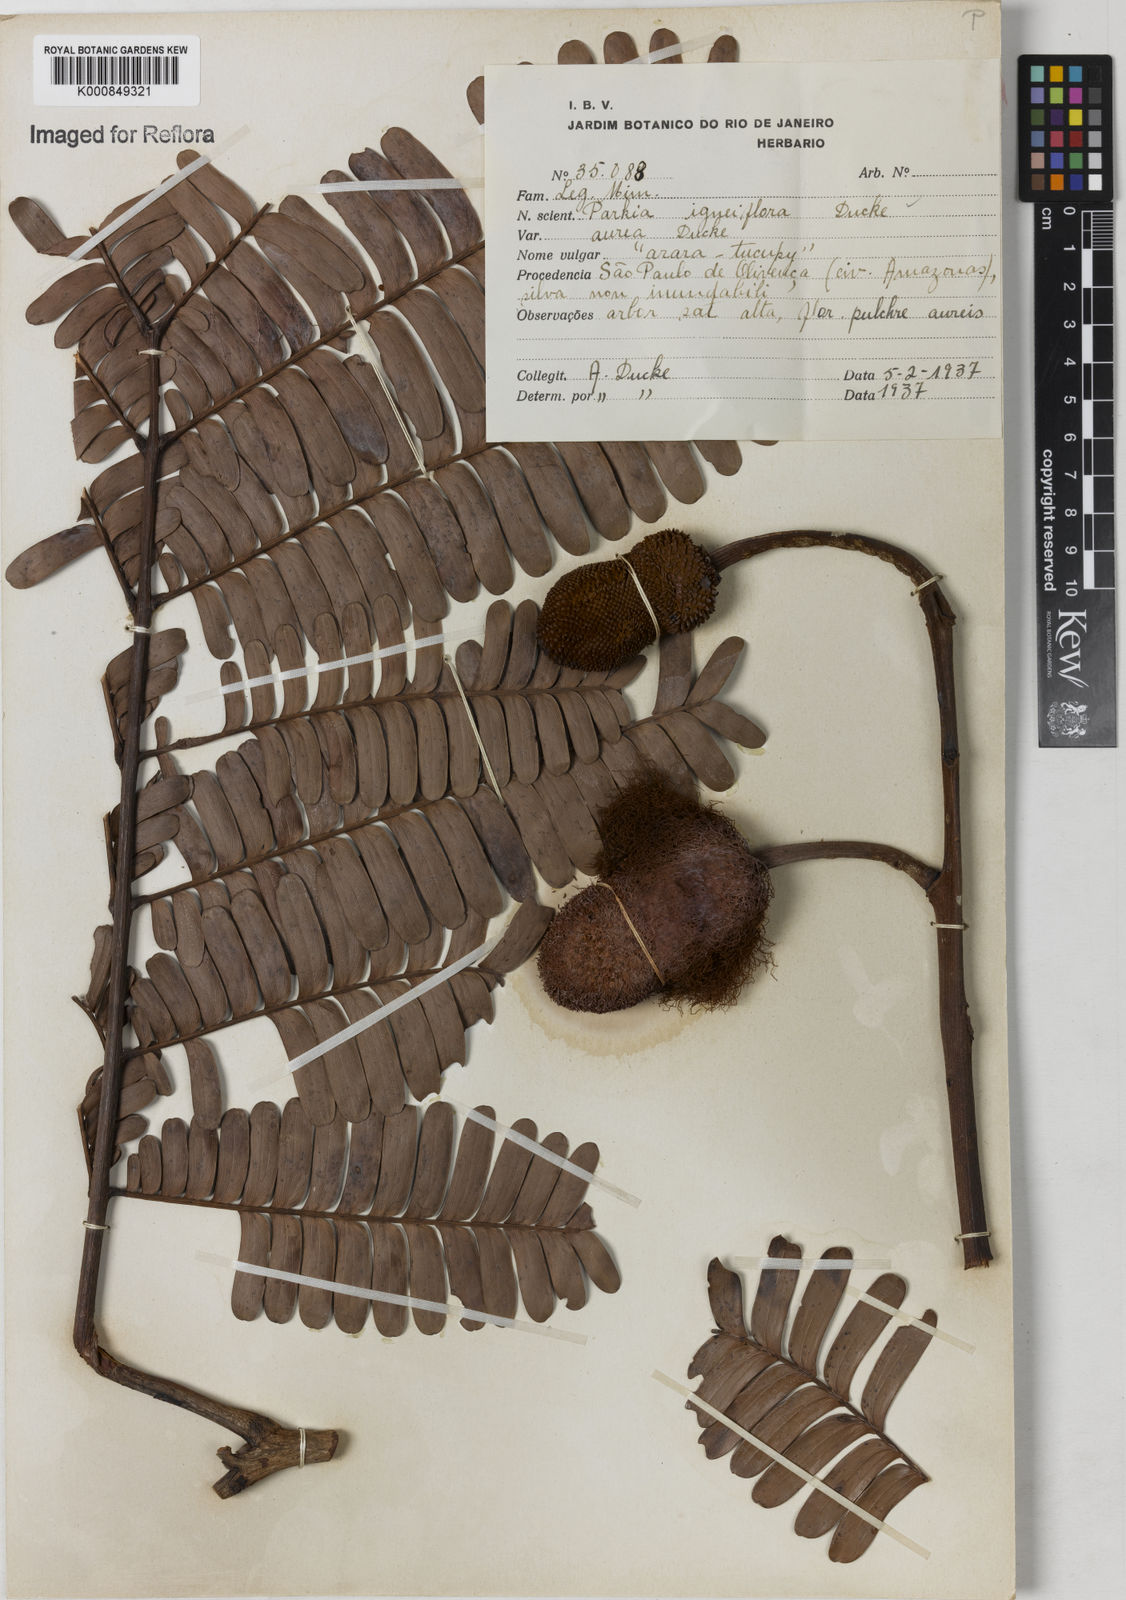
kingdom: Plantae
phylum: Tracheophyta
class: Magnoliopsida
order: Fabales
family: Fabaceae
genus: Parkia
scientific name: Parkia igneiflora
